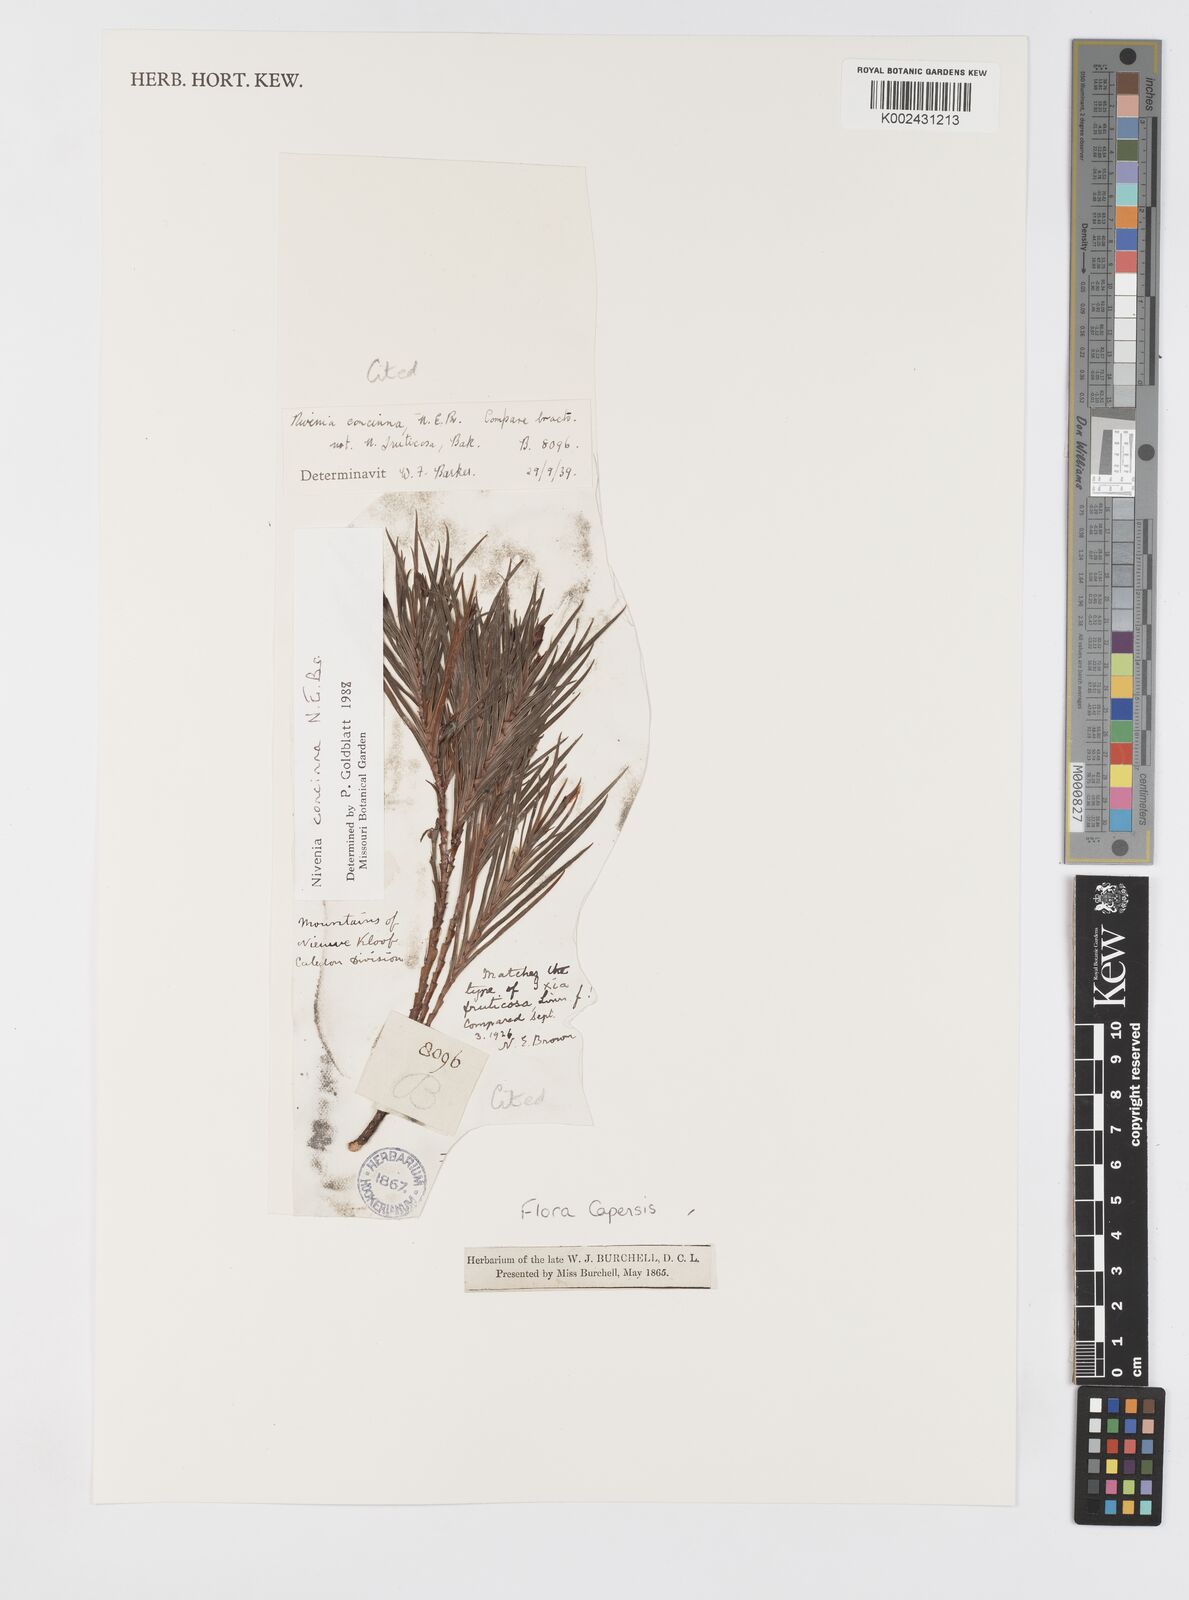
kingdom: Plantae
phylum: Tracheophyta
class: Liliopsida
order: Asparagales
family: Iridaceae
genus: Nivenia
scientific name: Nivenia concinna
